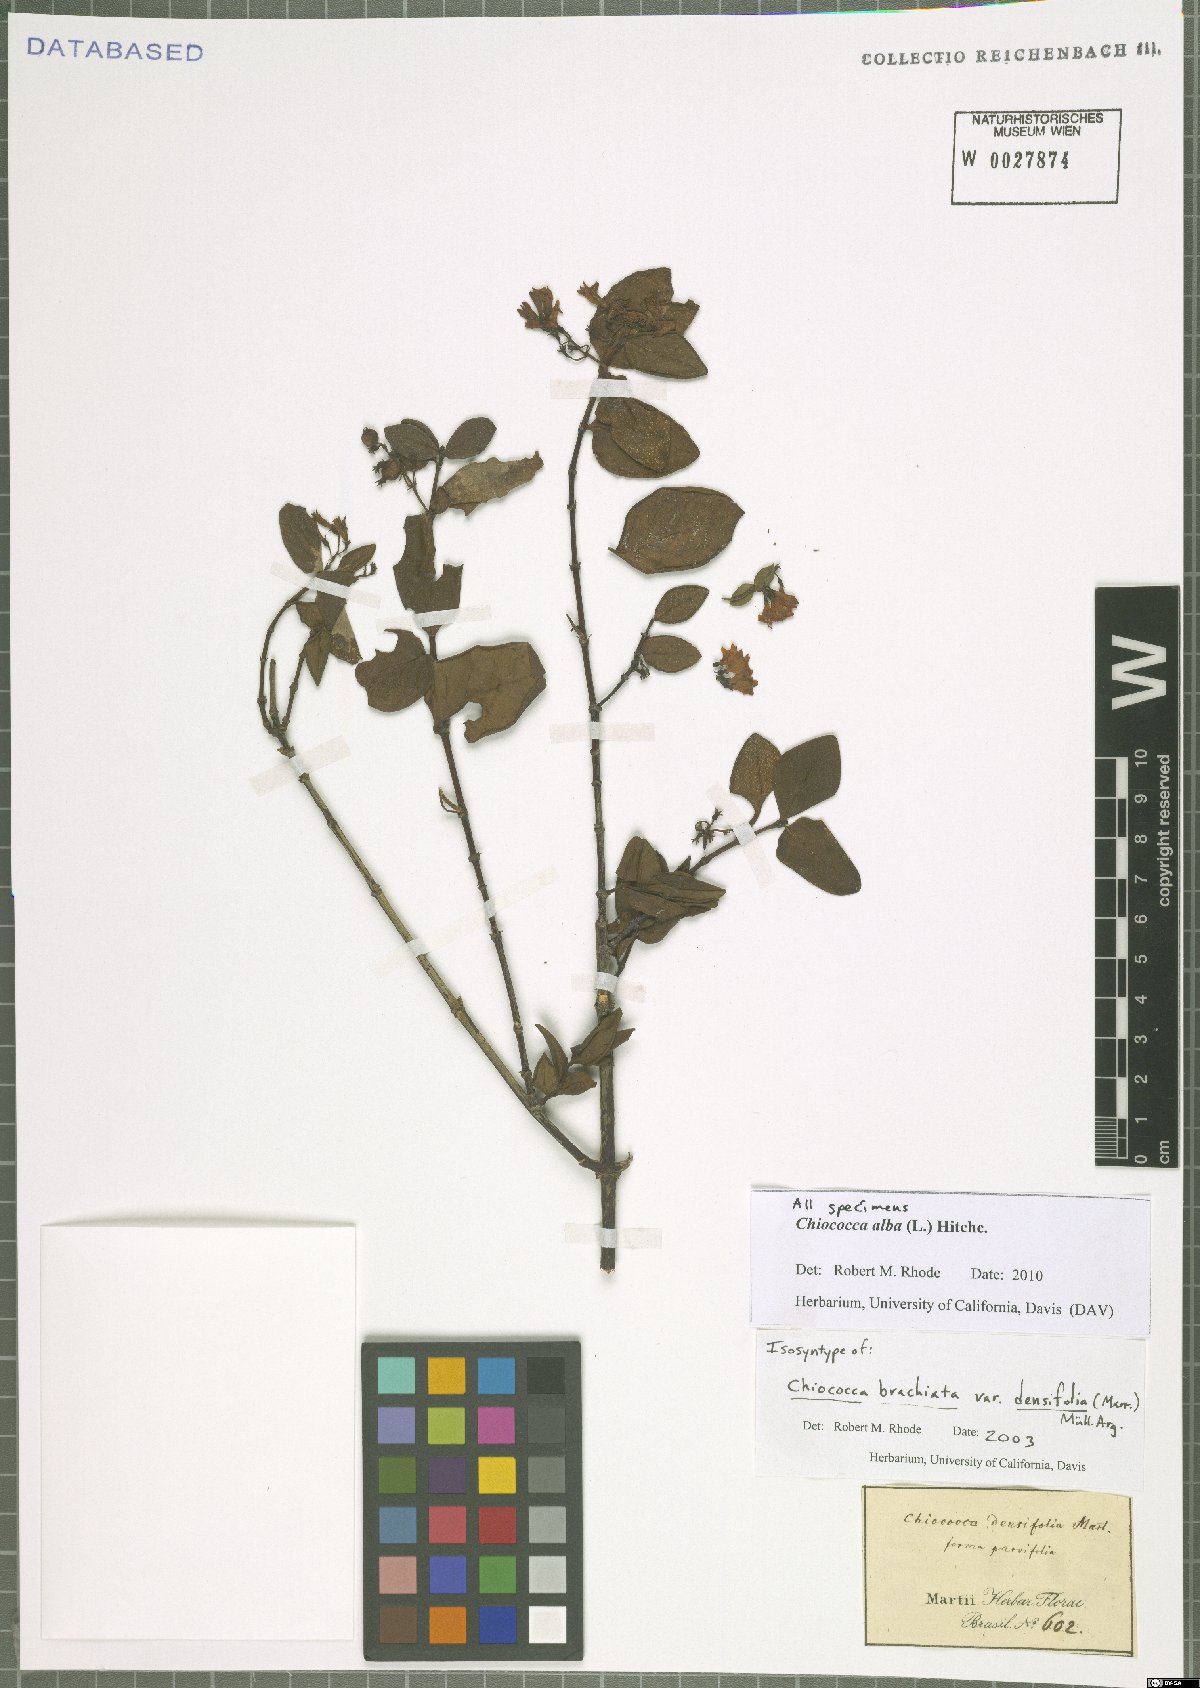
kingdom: Plantae
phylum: Tracheophyta
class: Magnoliopsida
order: Gentianales
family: Rubiaceae
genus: Chiococca
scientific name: Chiococca alba
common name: Snowberry
